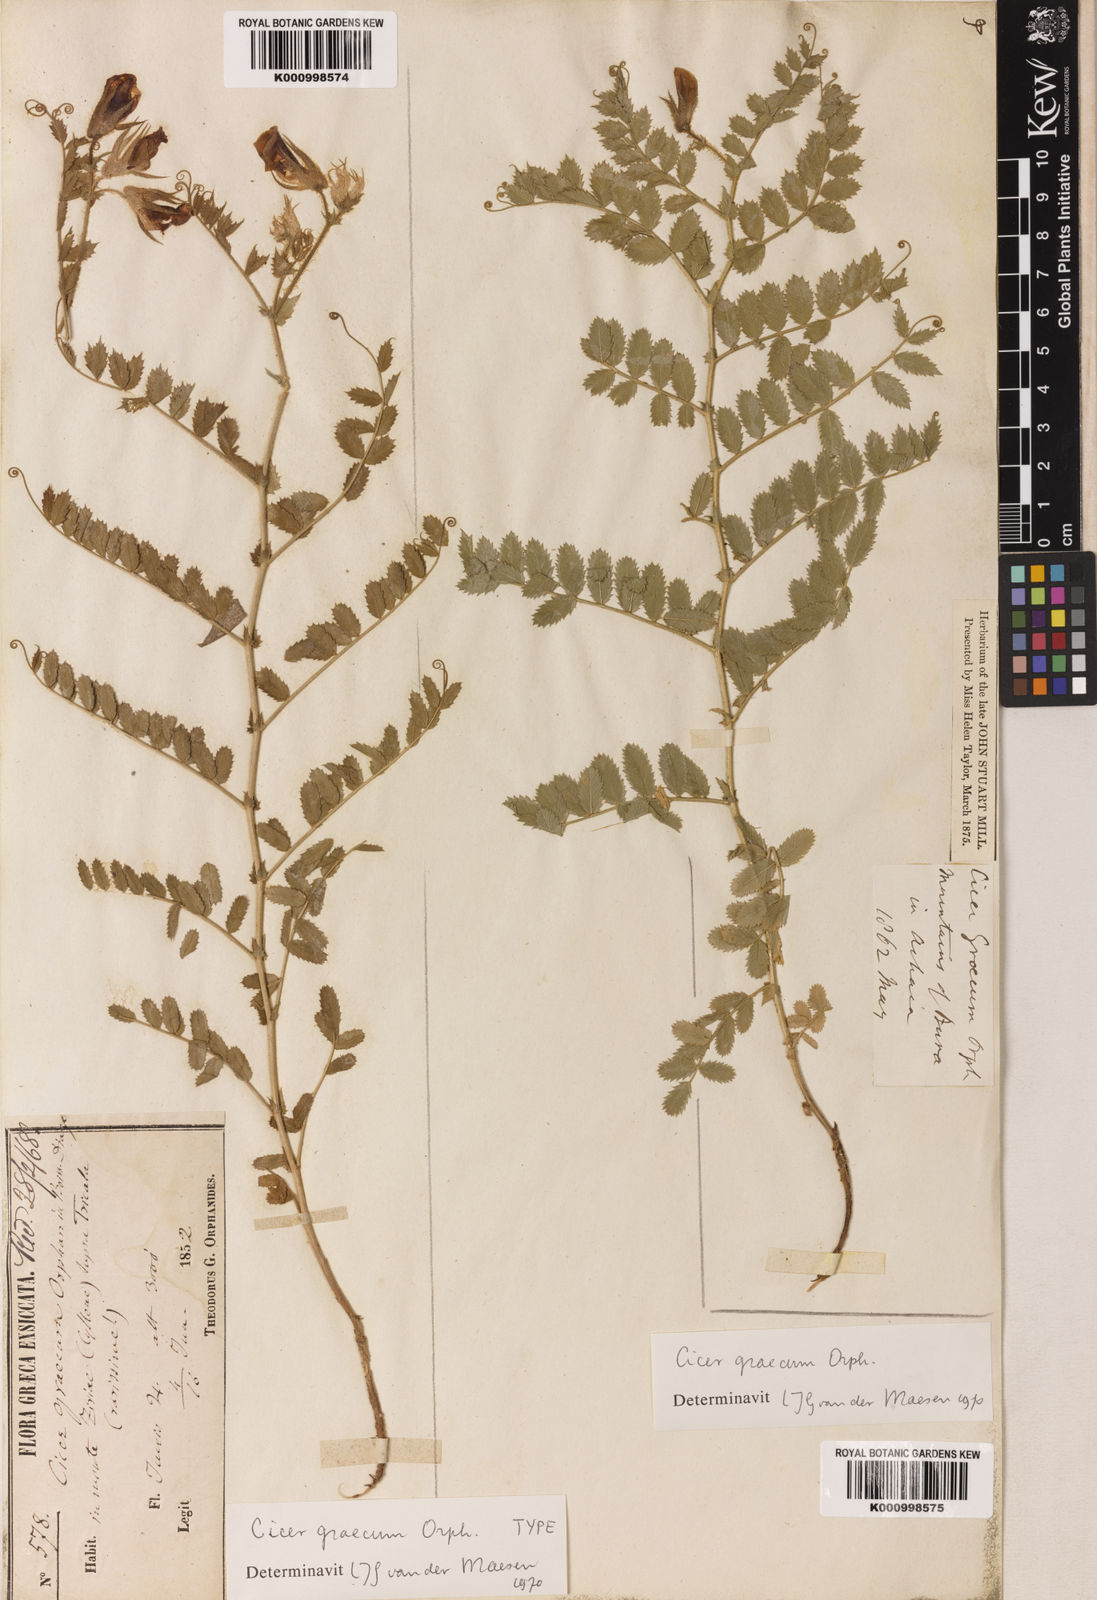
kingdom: Plantae
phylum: Tracheophyta
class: Magnoliopsida
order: Fabales
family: Fabaceae
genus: Cicer
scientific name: Cicer graecum
